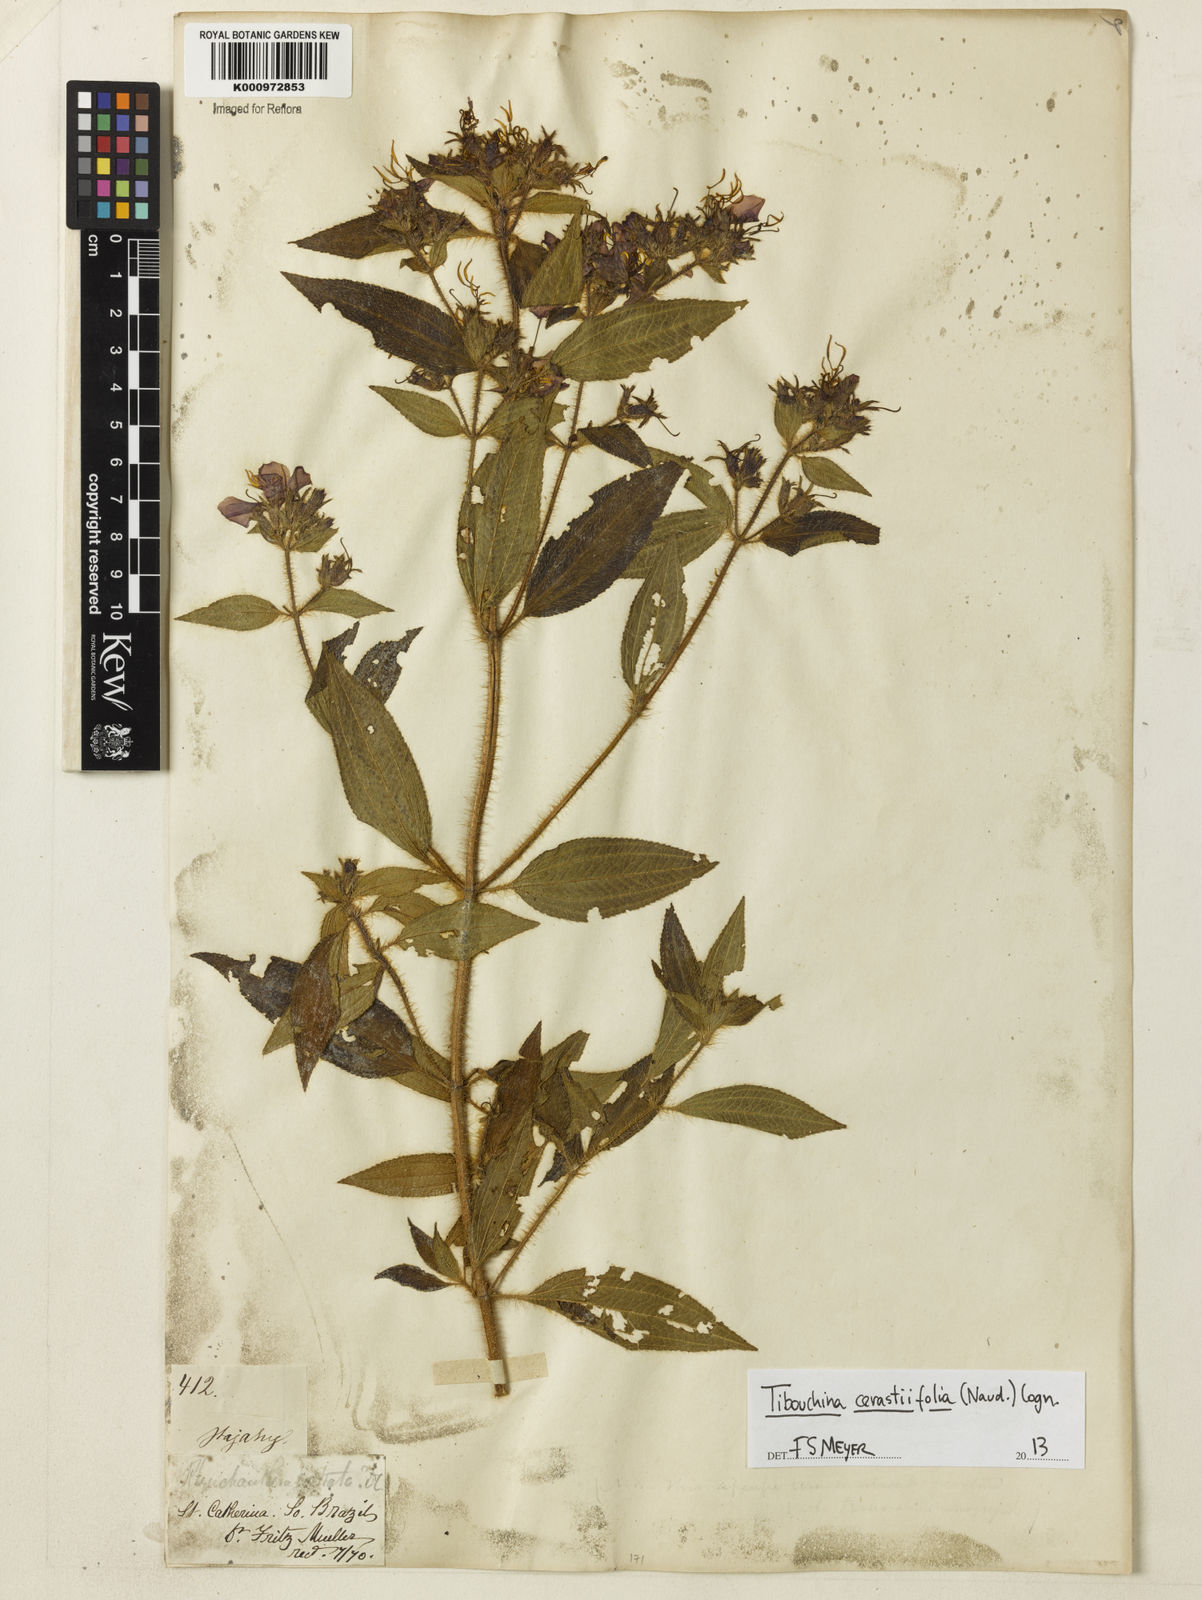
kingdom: Plantae
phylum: Tracheophyta
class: Magnoliopsida
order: Myrtales
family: Melastomataceae
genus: Chaetogastra
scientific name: Chaetogastra cerastifolia
